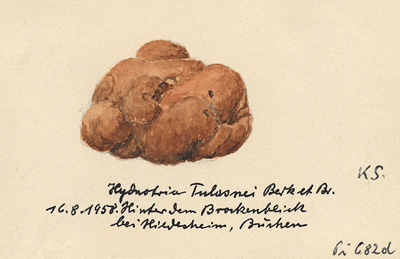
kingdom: Fungi
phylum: Ascomycota
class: Pezizomycetes
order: Pezizales
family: Discinaceae
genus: Hydnotrya
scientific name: Hydnotrya tulasnei
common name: Red fold truffle
